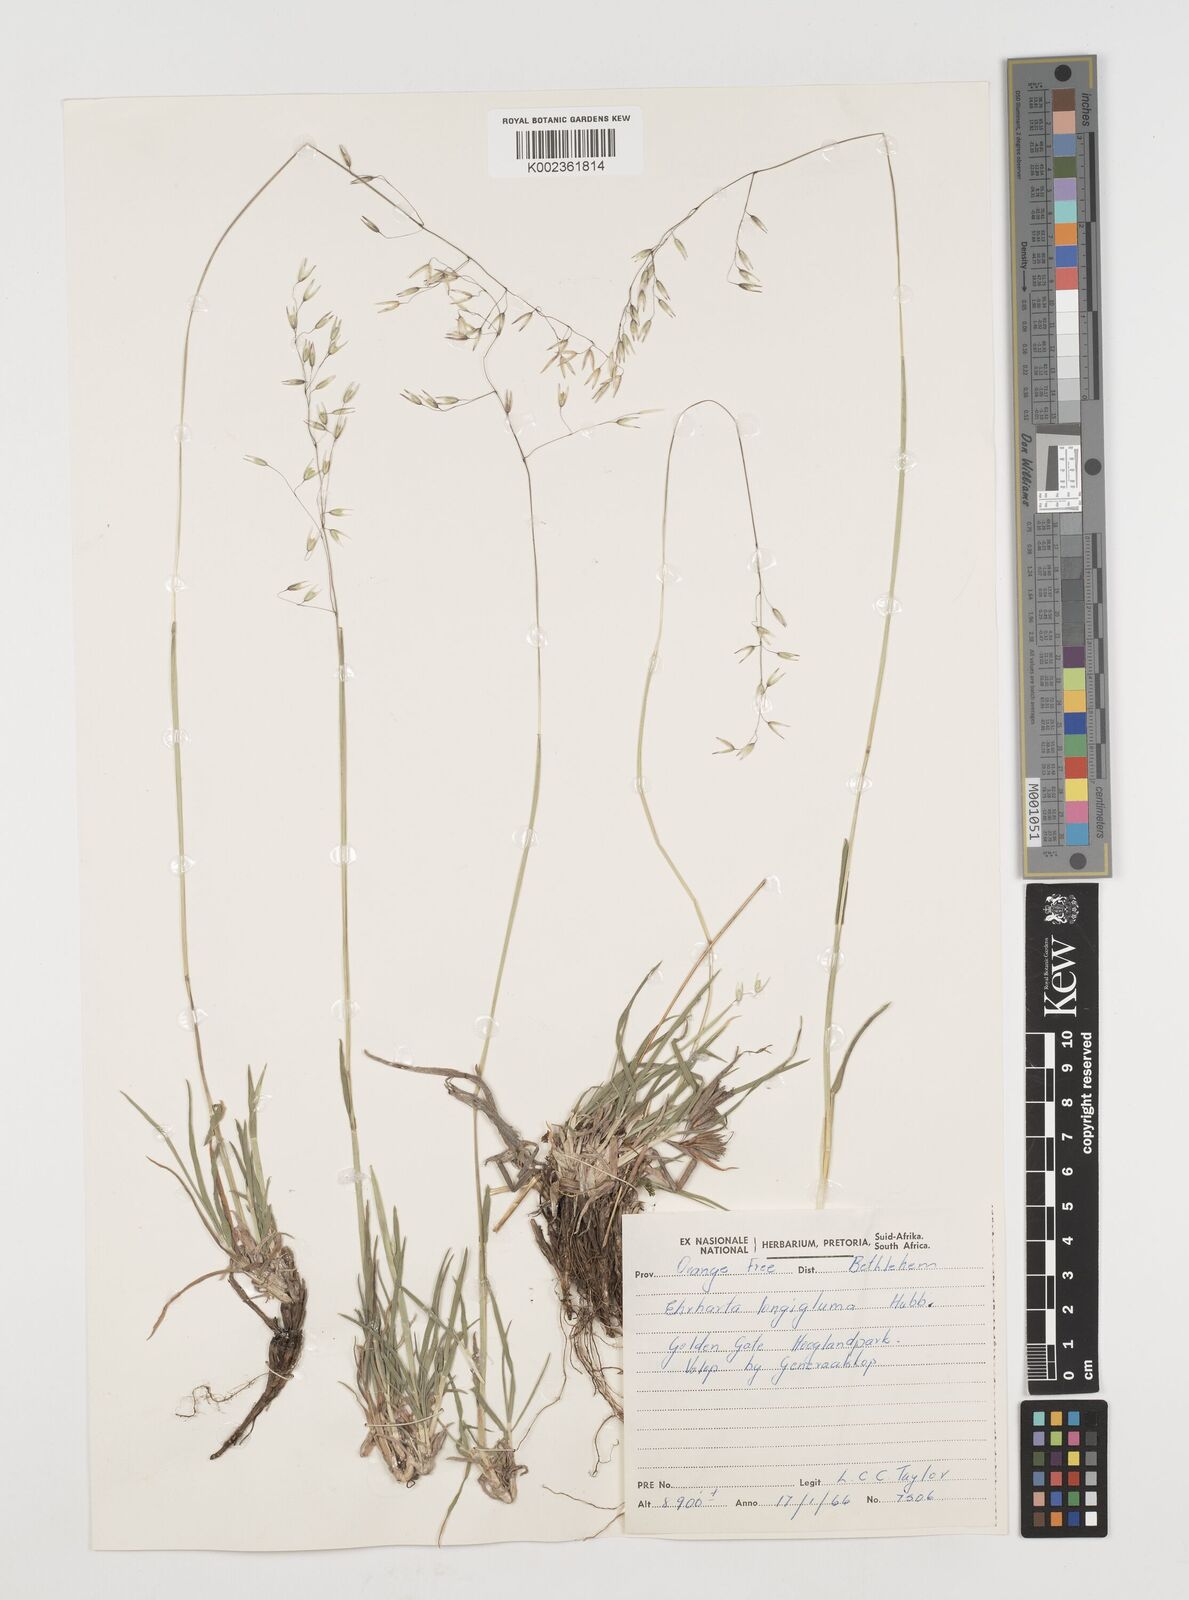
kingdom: Plantae
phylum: Tracheophyta
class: Liliopsida
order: Poales
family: Poaceae
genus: Ehrharta
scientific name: Ehrharta longigluma
